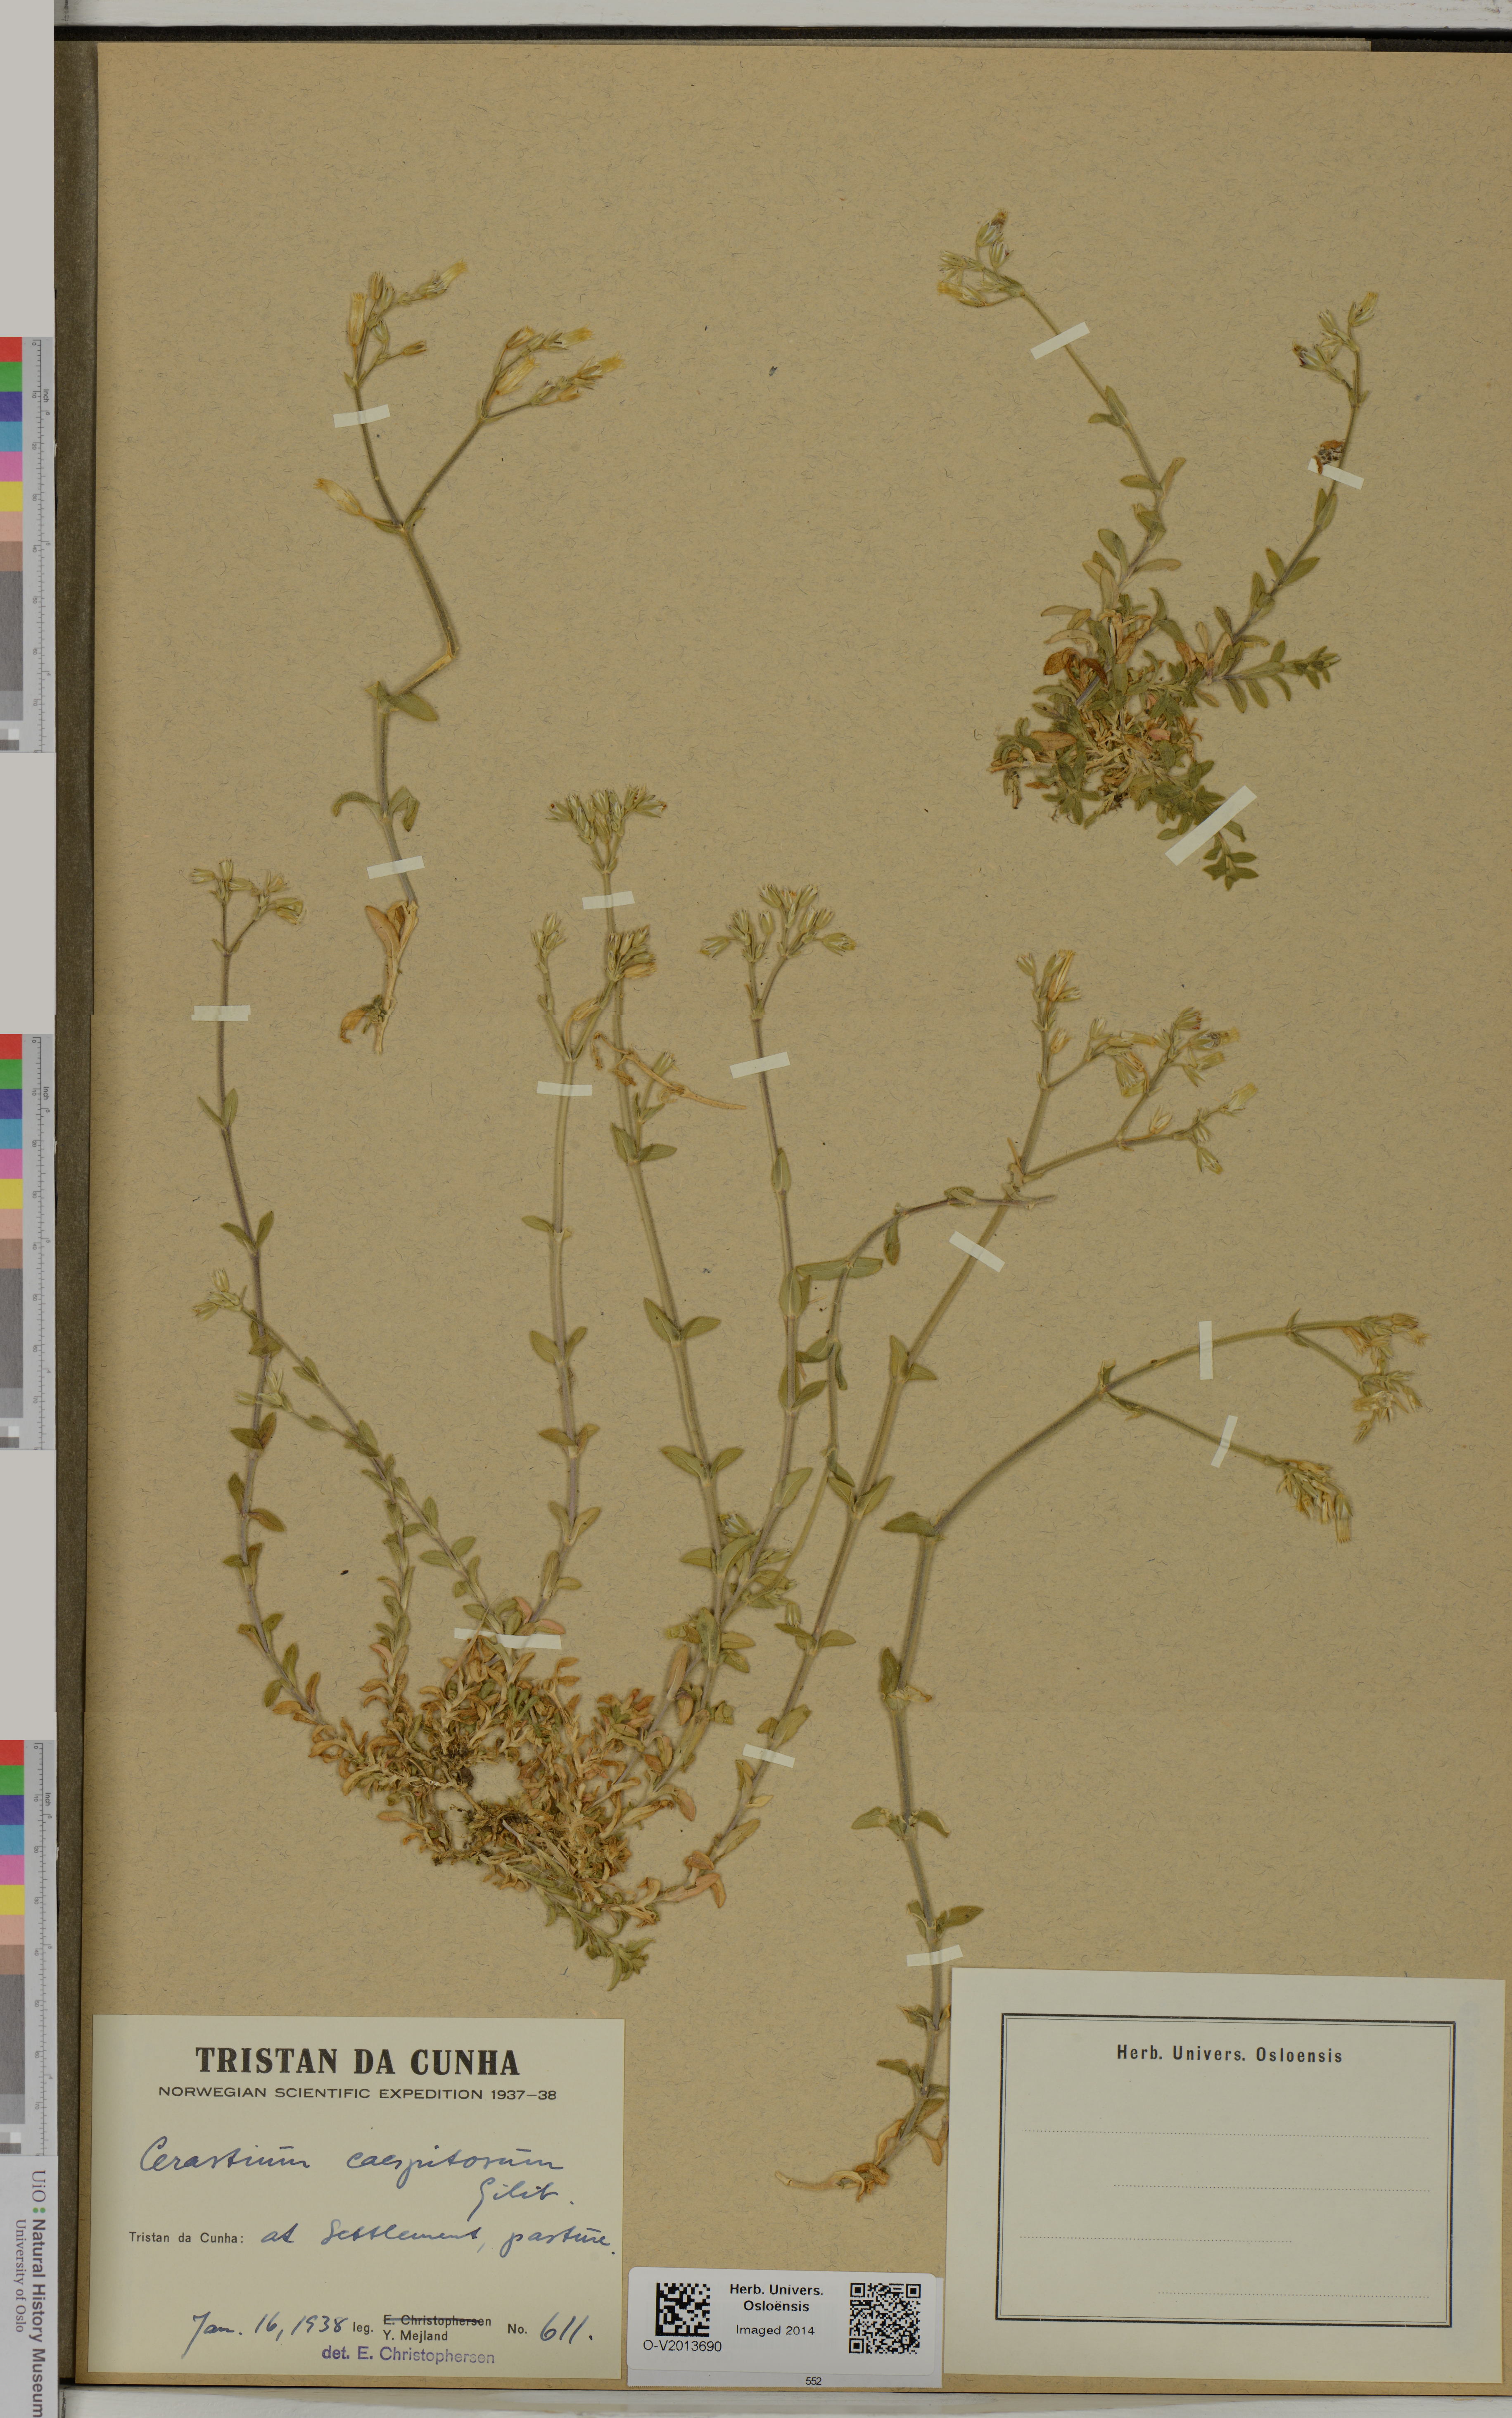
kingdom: Plantae
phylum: Tracheophyta
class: Magnoliopsida
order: Caryophyllales
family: Caryophyllaceae
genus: Cerastium
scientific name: Cerastium holosteoides
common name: Big chickweed
